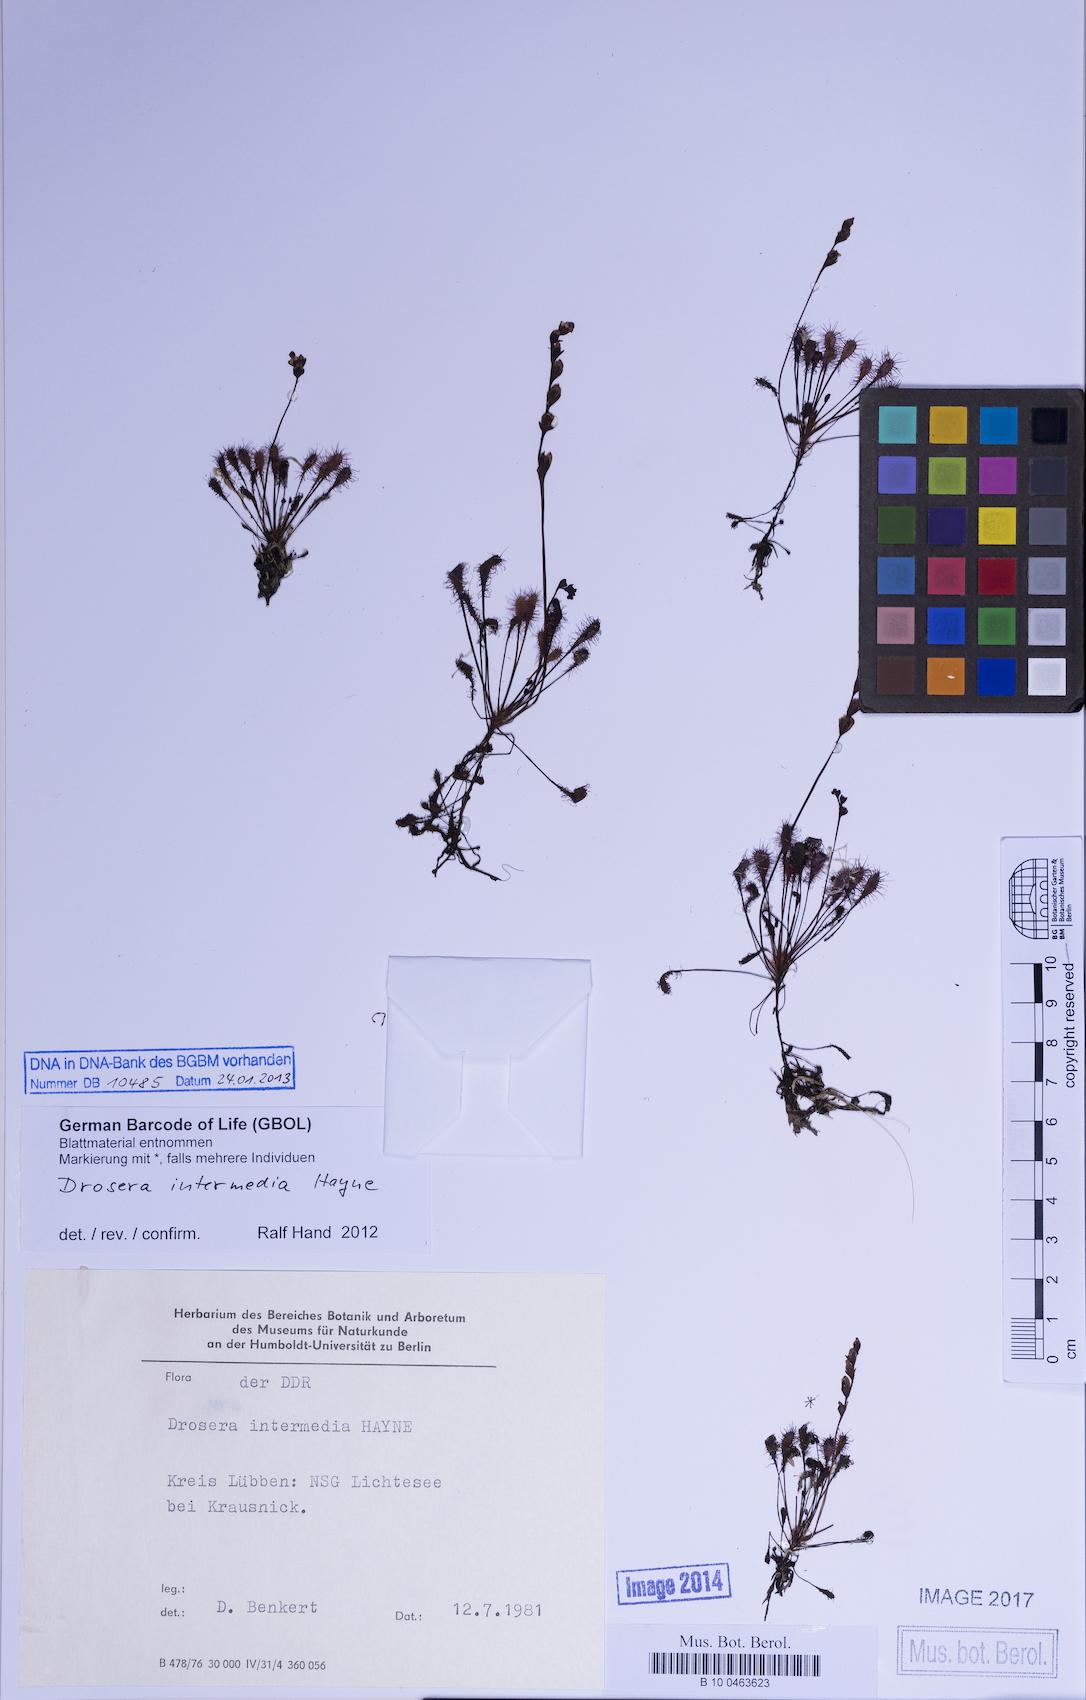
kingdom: Plantae
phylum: Tracheophyta
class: Magnoliopsida
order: Caryophyllales
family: Droseraceae
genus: Drosera
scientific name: Drosera intermedia
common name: Oblong-leaved sundew
